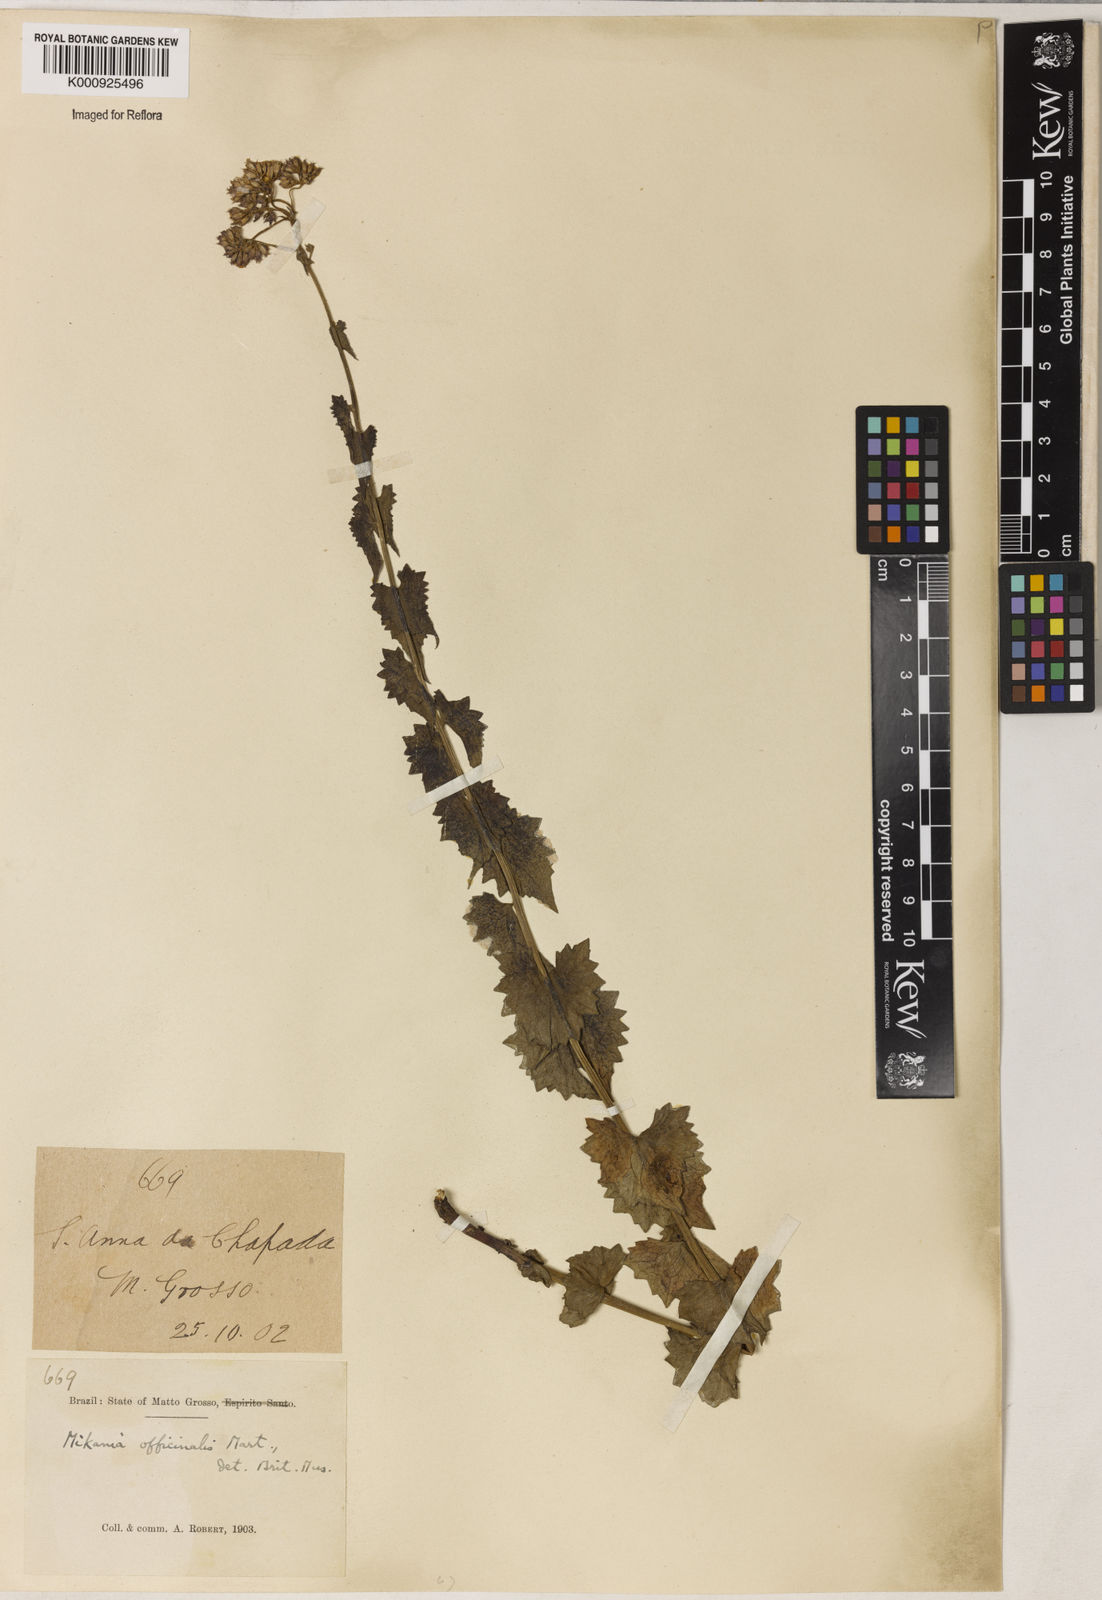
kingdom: Plantae
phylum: Tracheophyta
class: Magnoliopsida
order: Asterales
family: Asteraceae
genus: Mikania
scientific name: Mikania officinalis
